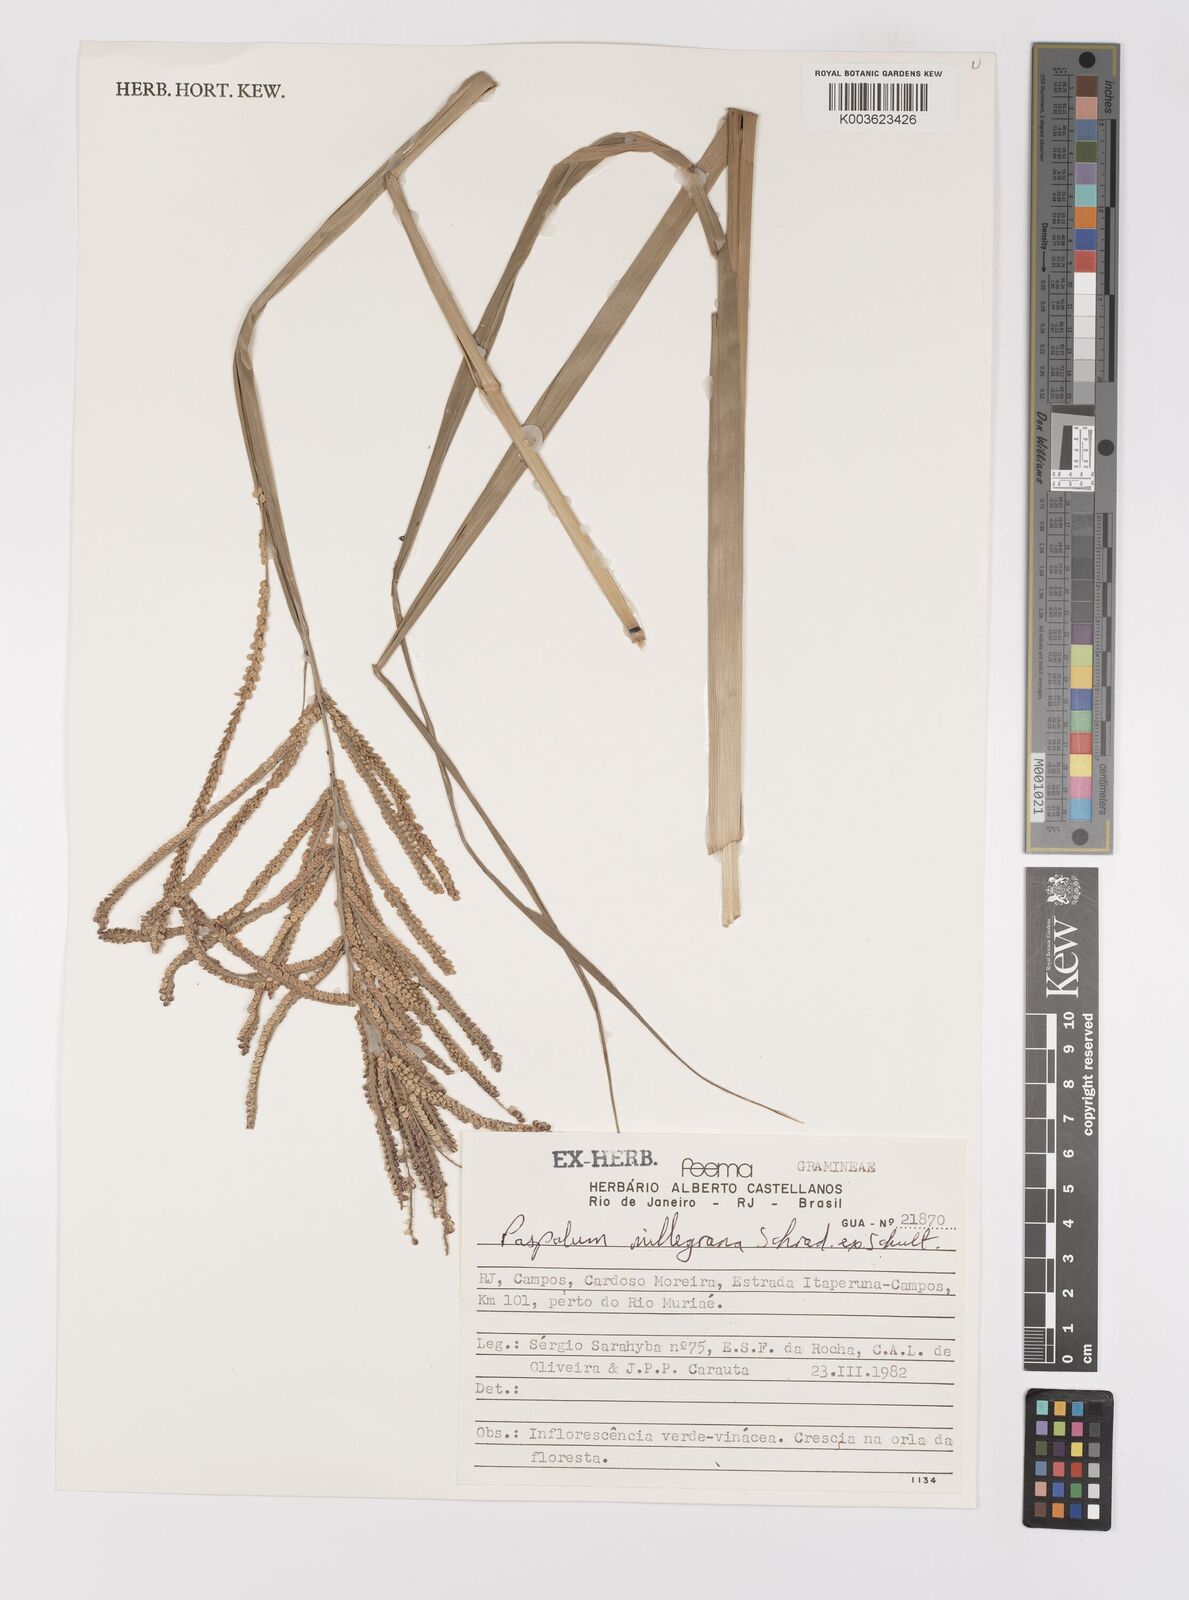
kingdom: Plantae
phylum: Tracheophyta
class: Liliopsida
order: Poales
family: Poaceae
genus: Paspalum
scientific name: Paspalum millegranum
